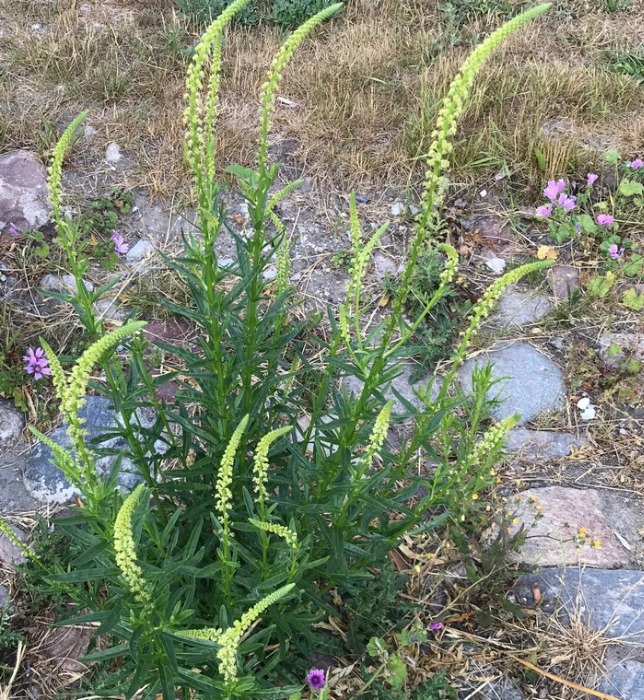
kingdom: Plantae
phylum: Tracheophyta
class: Magnoliopsida
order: Brassicales
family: Resedaceae
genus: Reseda
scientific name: Reseda luteola
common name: Farve-reseda
